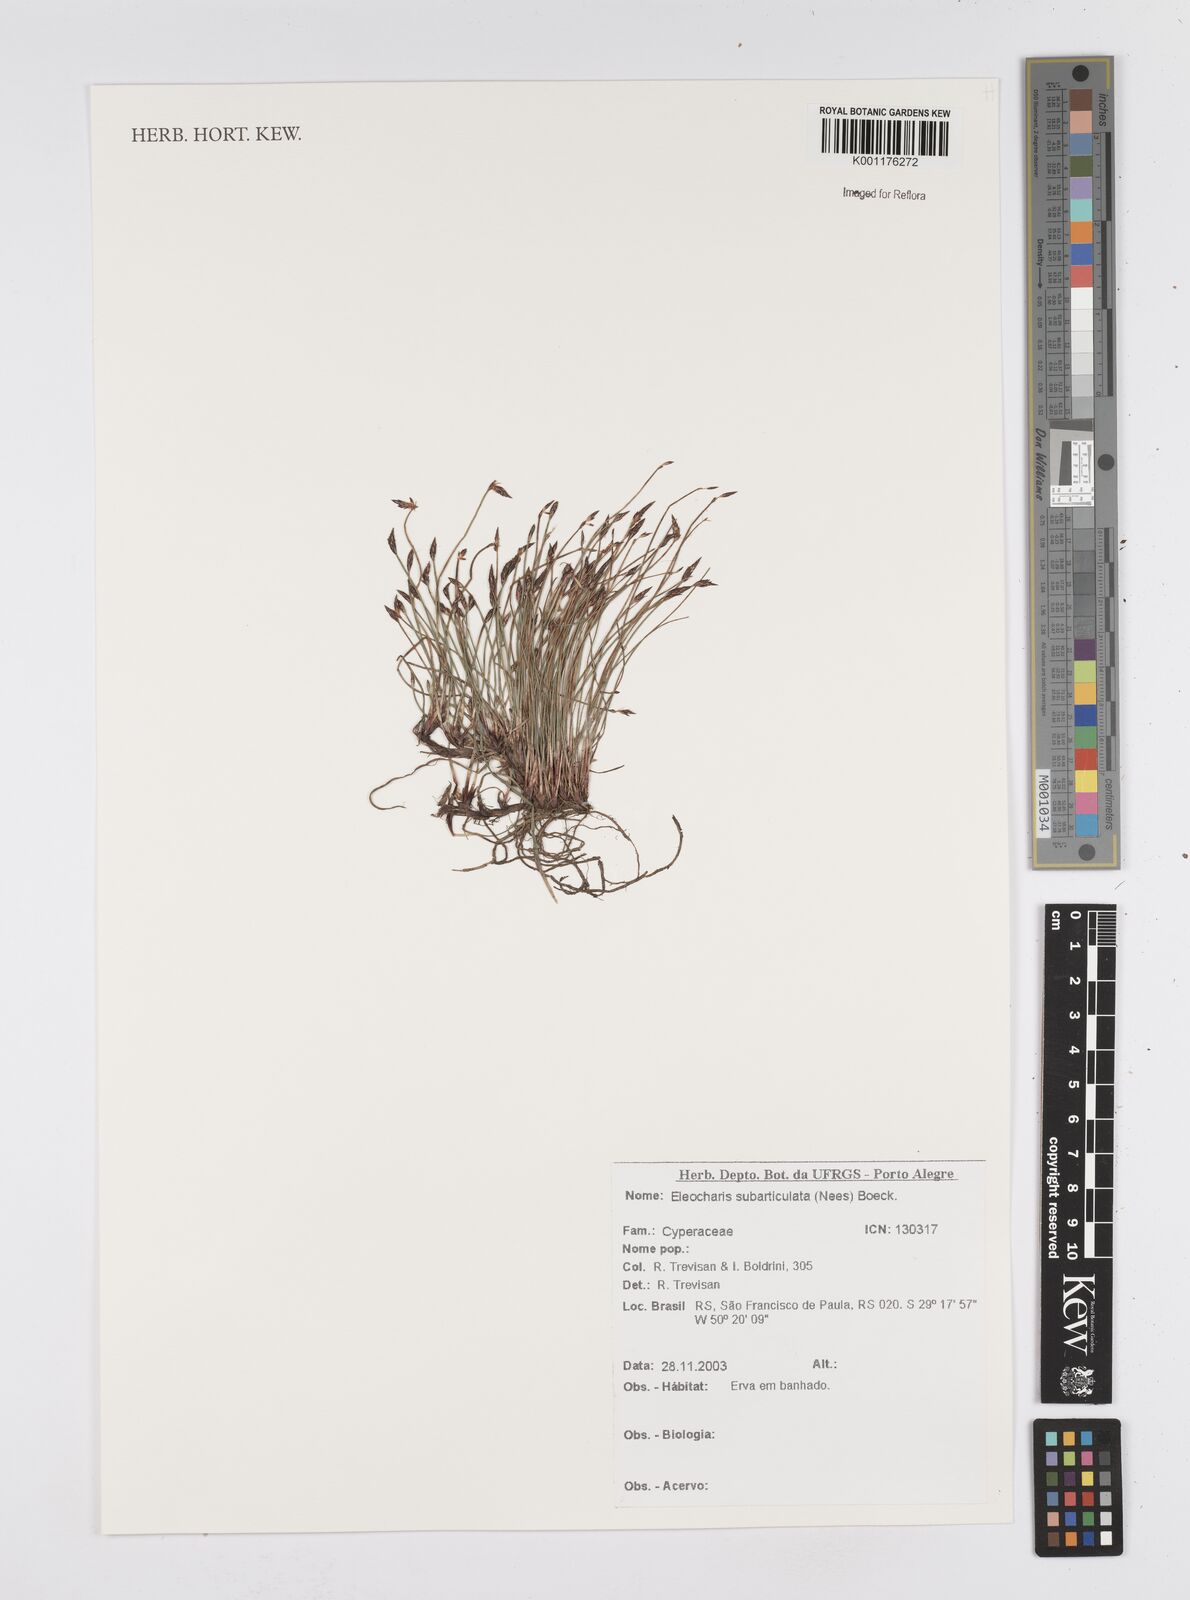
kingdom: Plantae
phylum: Tracheophyta
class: Liliopsida
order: Poales
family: Cyperaceae
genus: Eleocharis
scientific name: Eleocharis subarticulata
